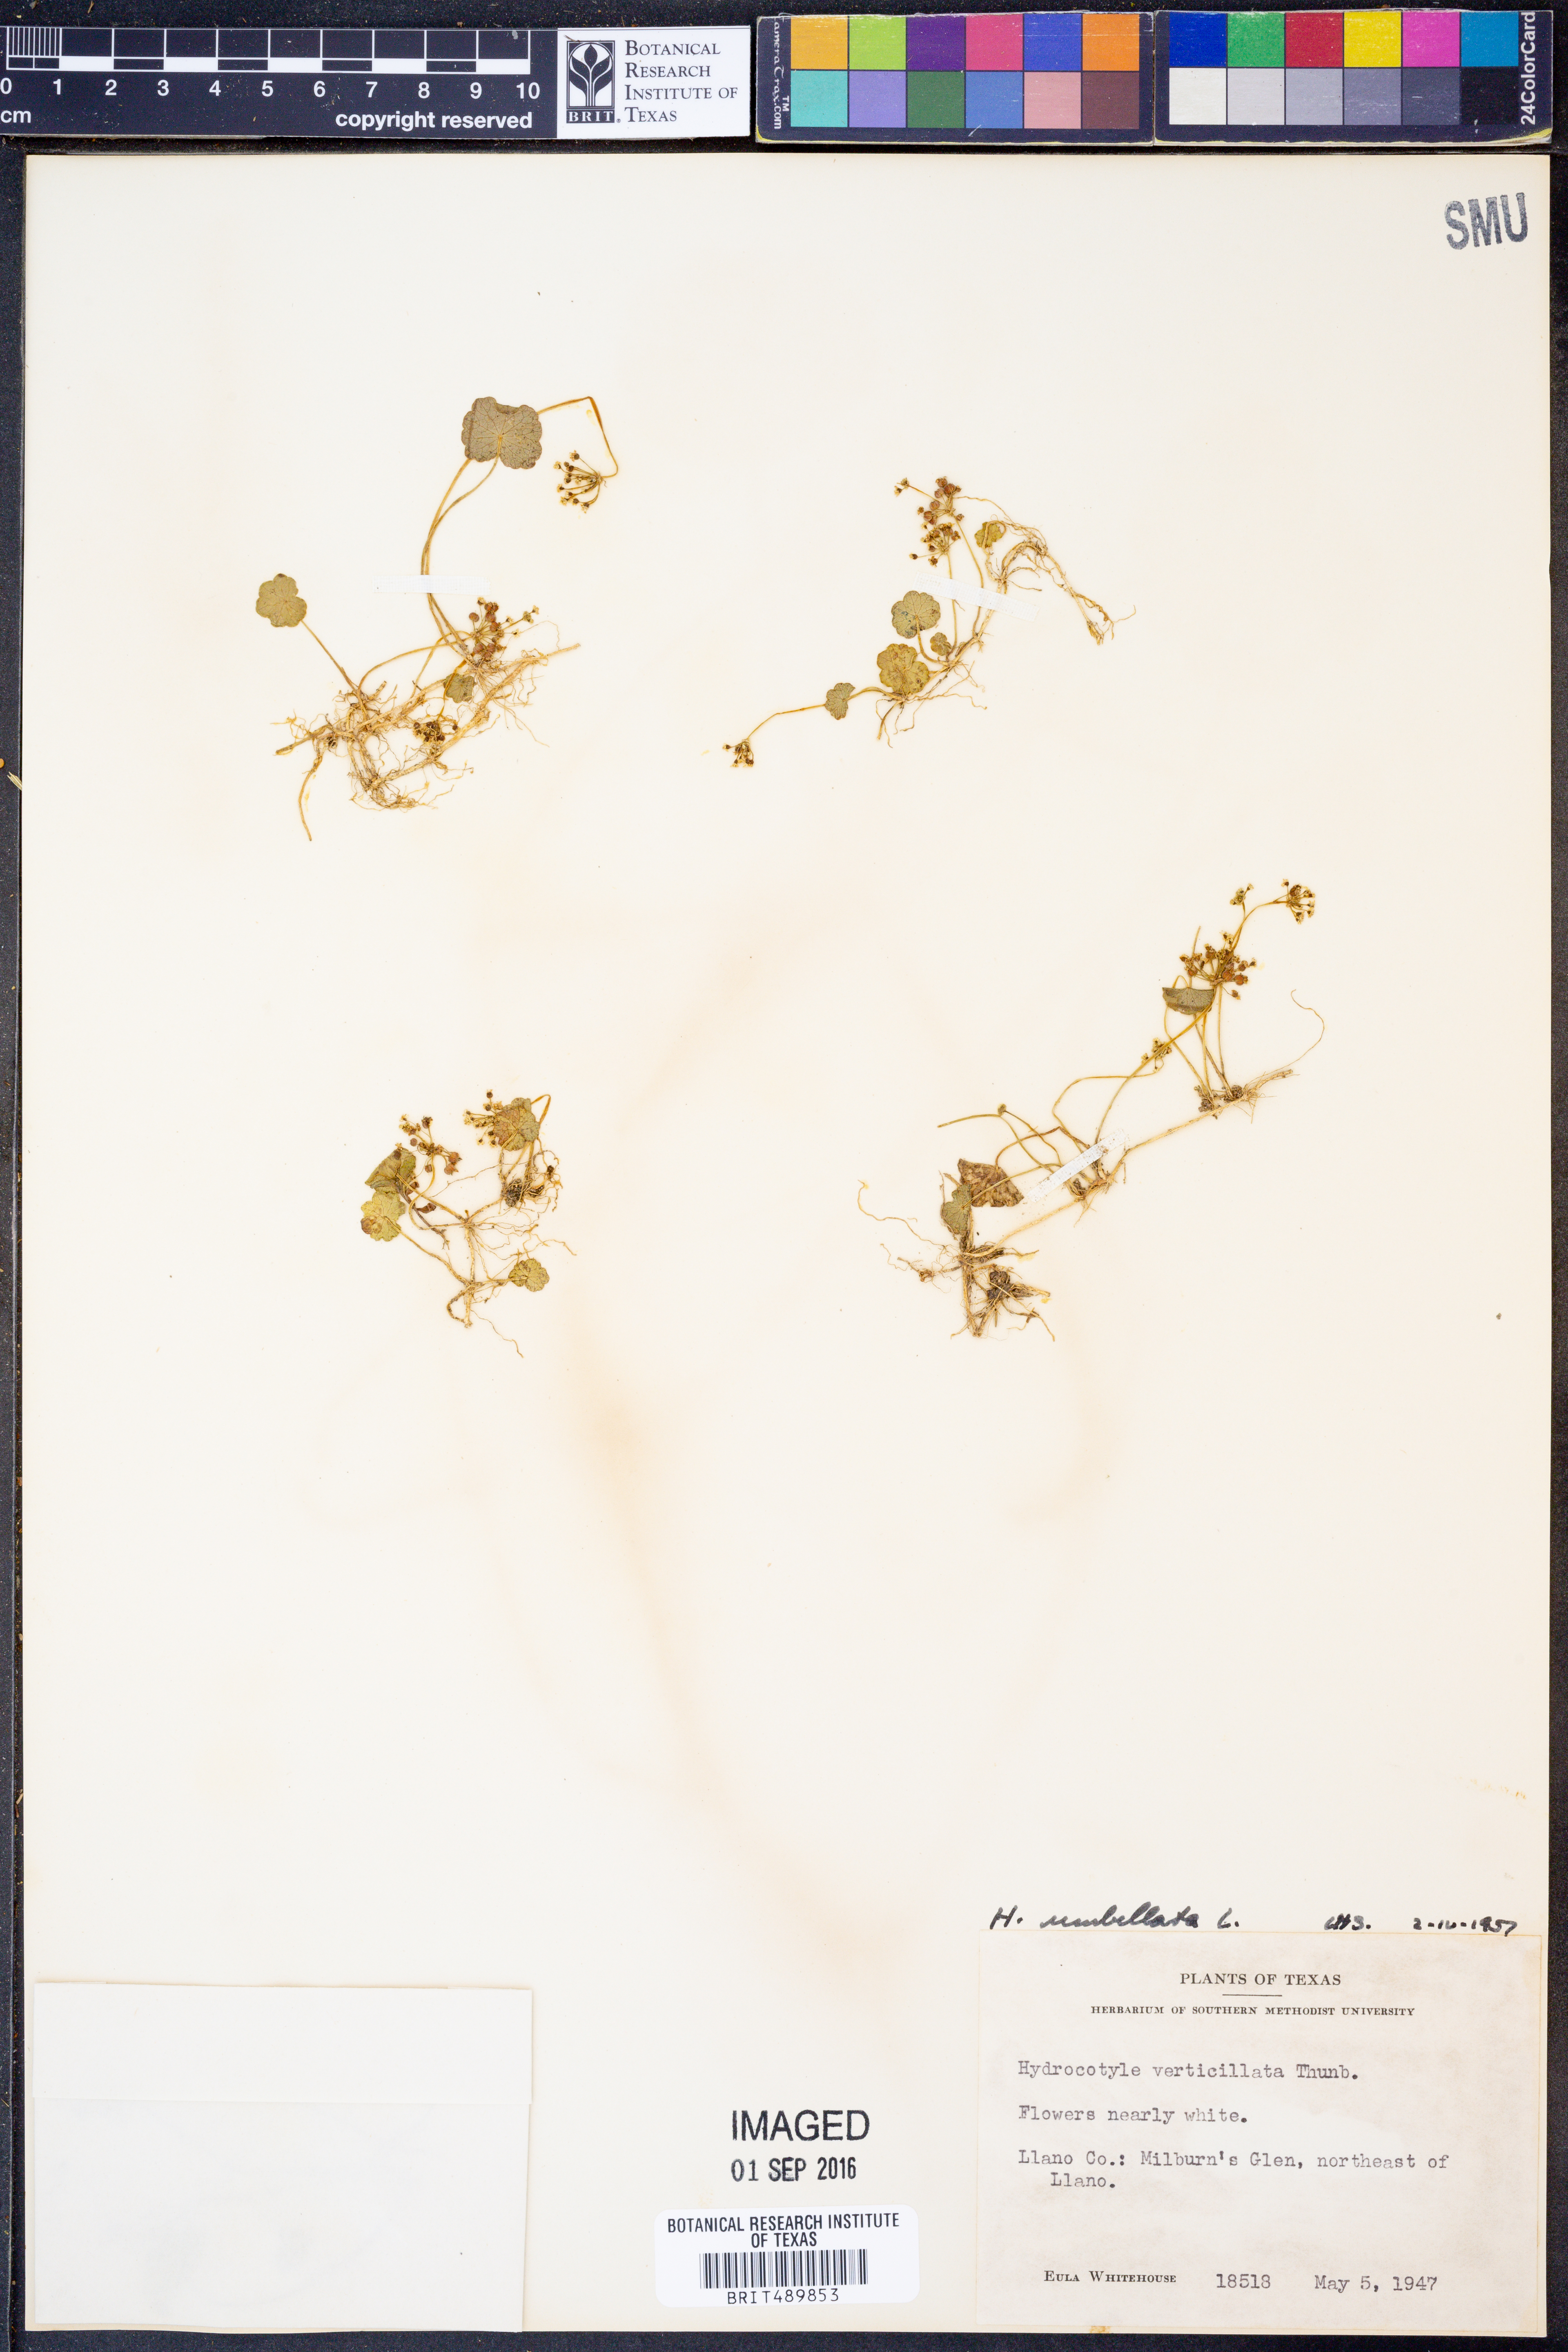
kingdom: Plantae
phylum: Tracheophyta
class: Magnoliopsida
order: Apiales
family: Araliaceae
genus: Hydrocotyle
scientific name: Hydrocotyle umbellata
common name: Water pennywort
